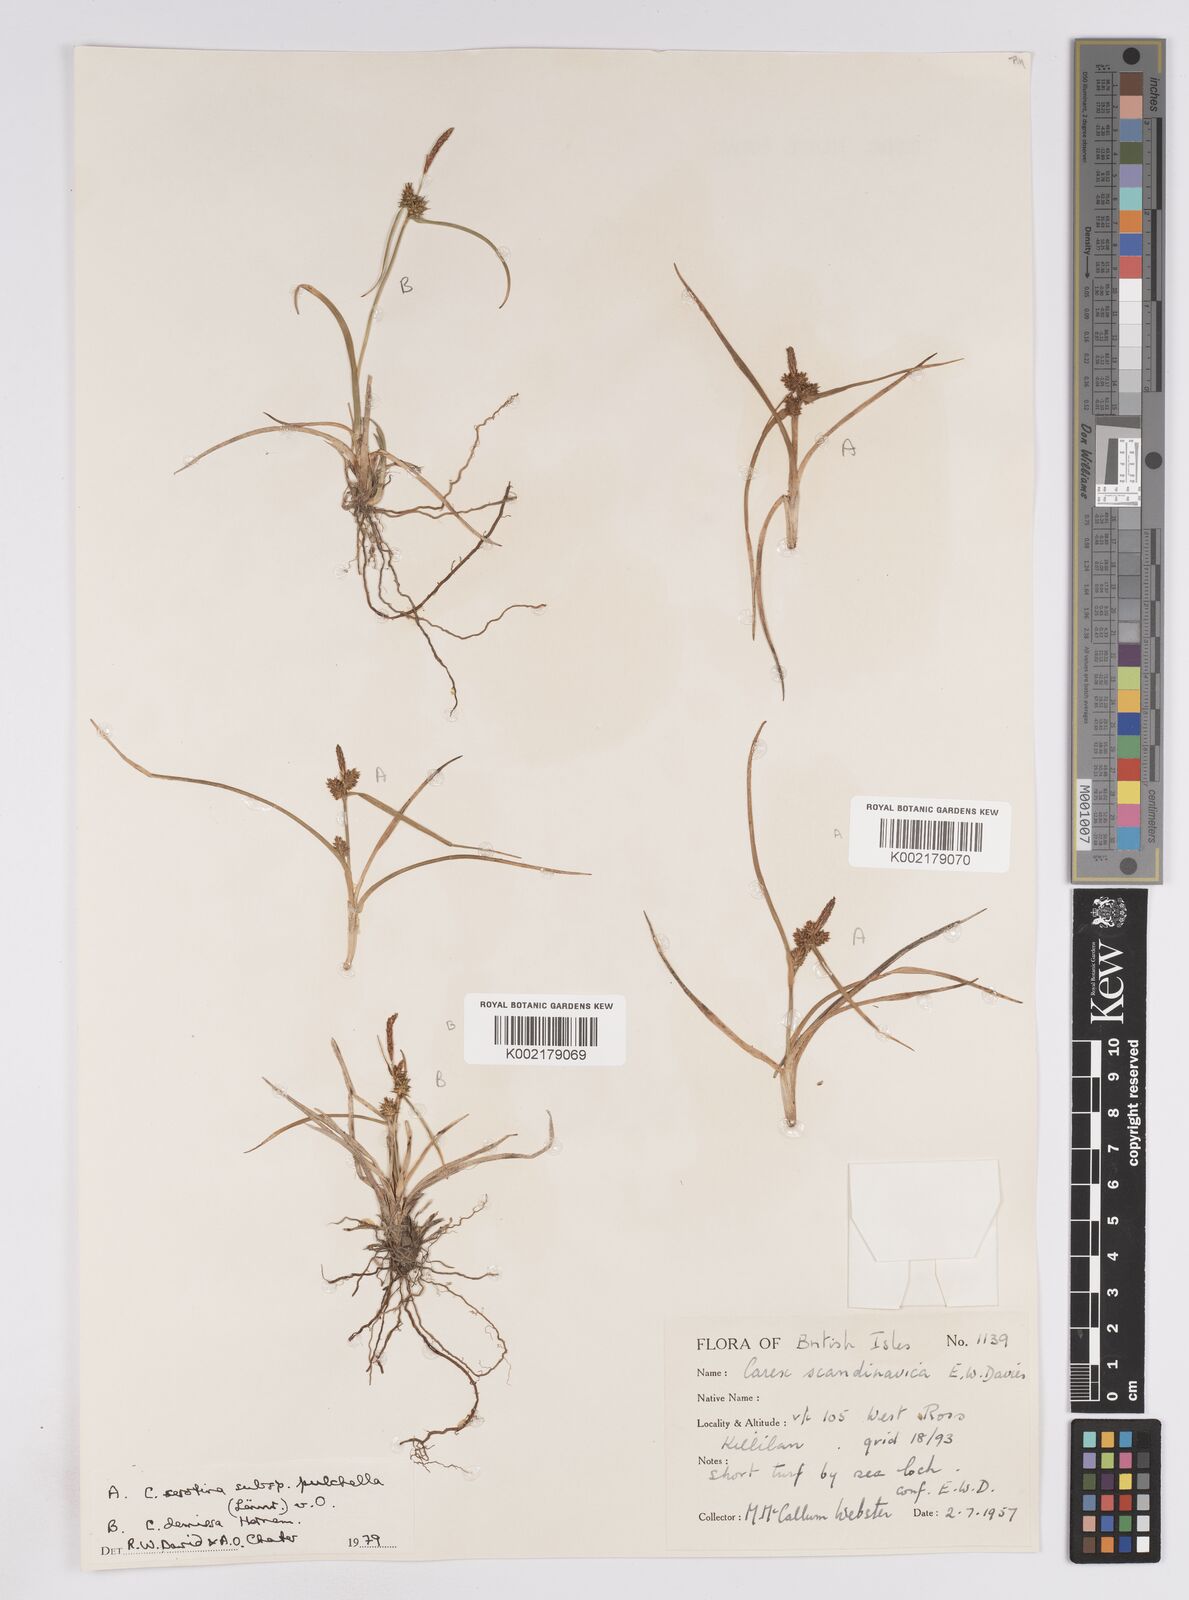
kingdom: Plantae
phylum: Tracheophyta
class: Liliopsida
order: Poales
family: Cyperaceae
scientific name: Cyperaceae
